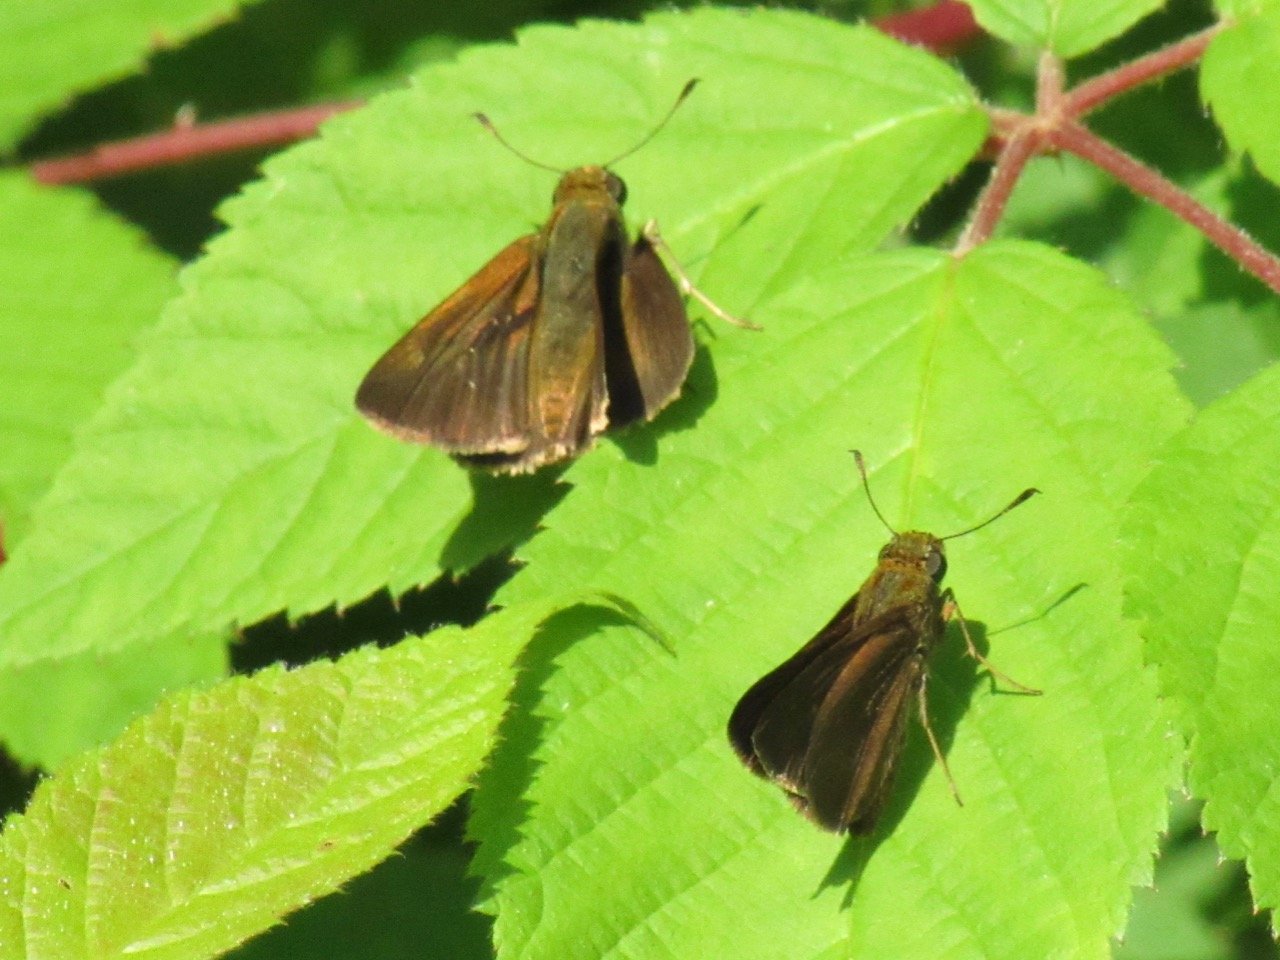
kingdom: Animalia
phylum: Arthropoda
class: Insecta
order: Lepidoptera
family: Hesperiidae
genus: Euphyes
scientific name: Euphyes vestris
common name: Dun Skipper
